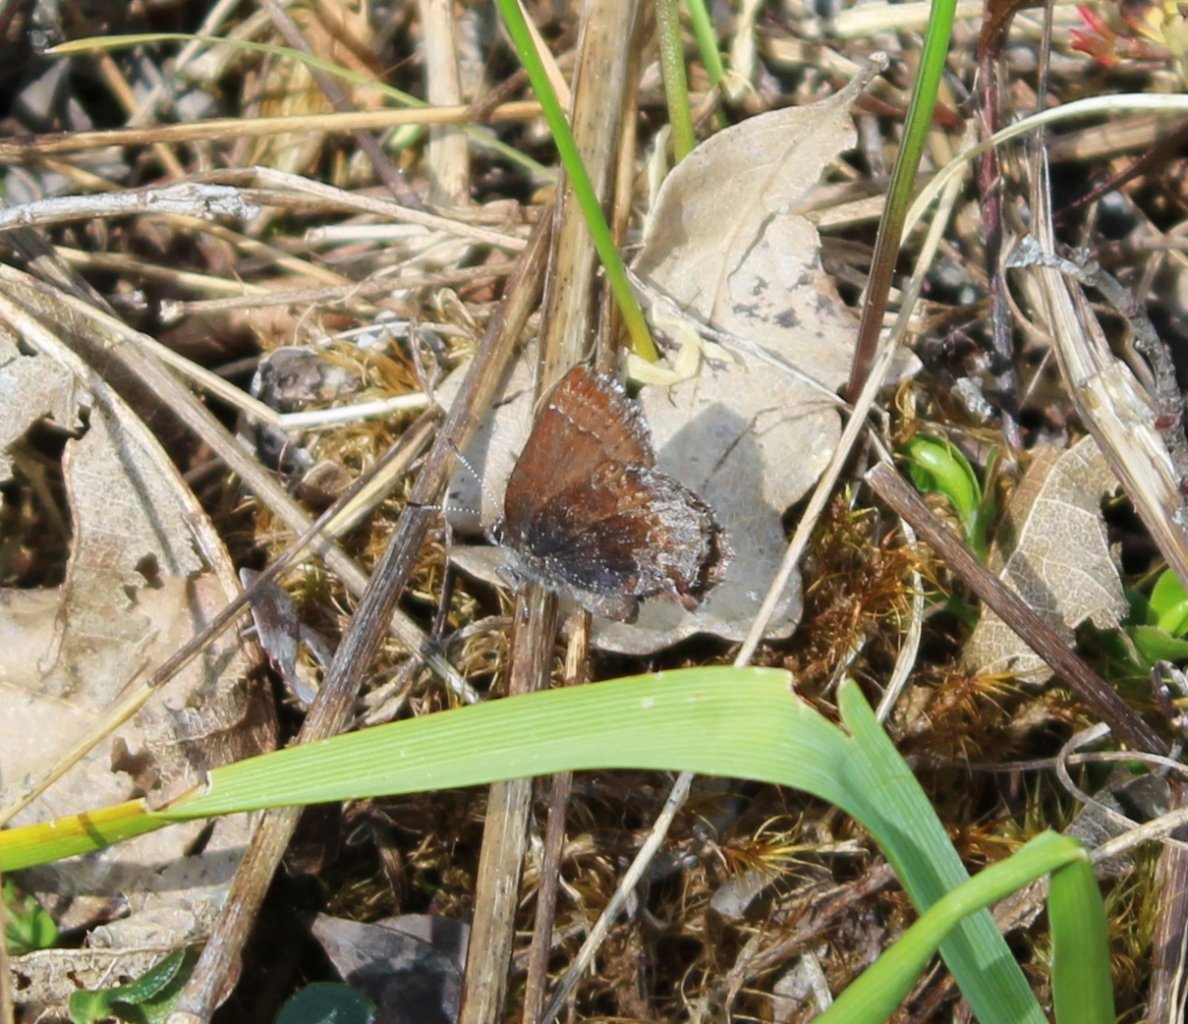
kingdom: Animalia
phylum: Arthropoda
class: Insecta
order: Lepidoptera
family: Lycaenidae
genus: Callophrys
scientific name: Callophrys polios
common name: Hoary Elfin
